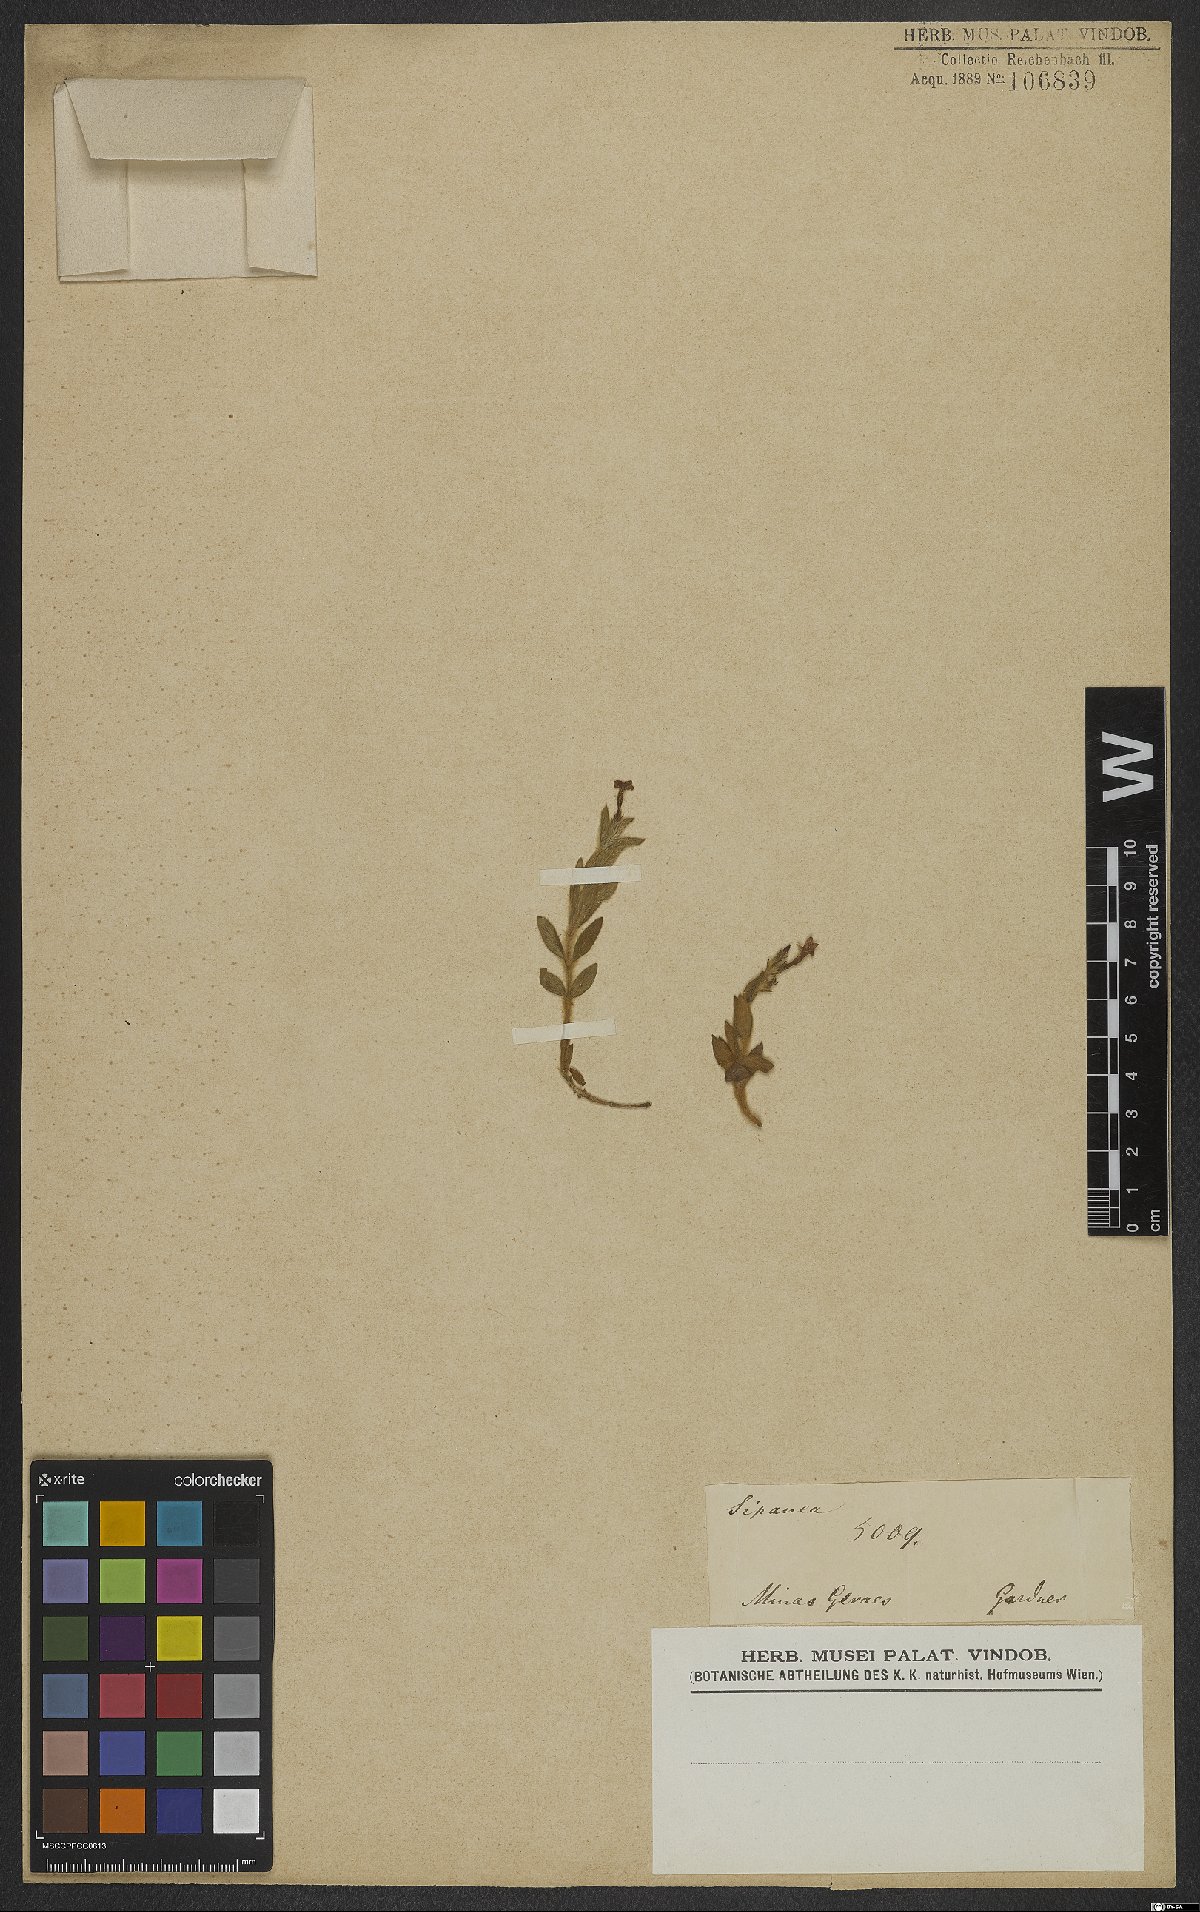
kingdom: Plantae
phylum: Tracheophyta
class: Magnoliopsida
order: Gentianales
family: Rubiaceae
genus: Sipanea
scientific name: Sipanea
